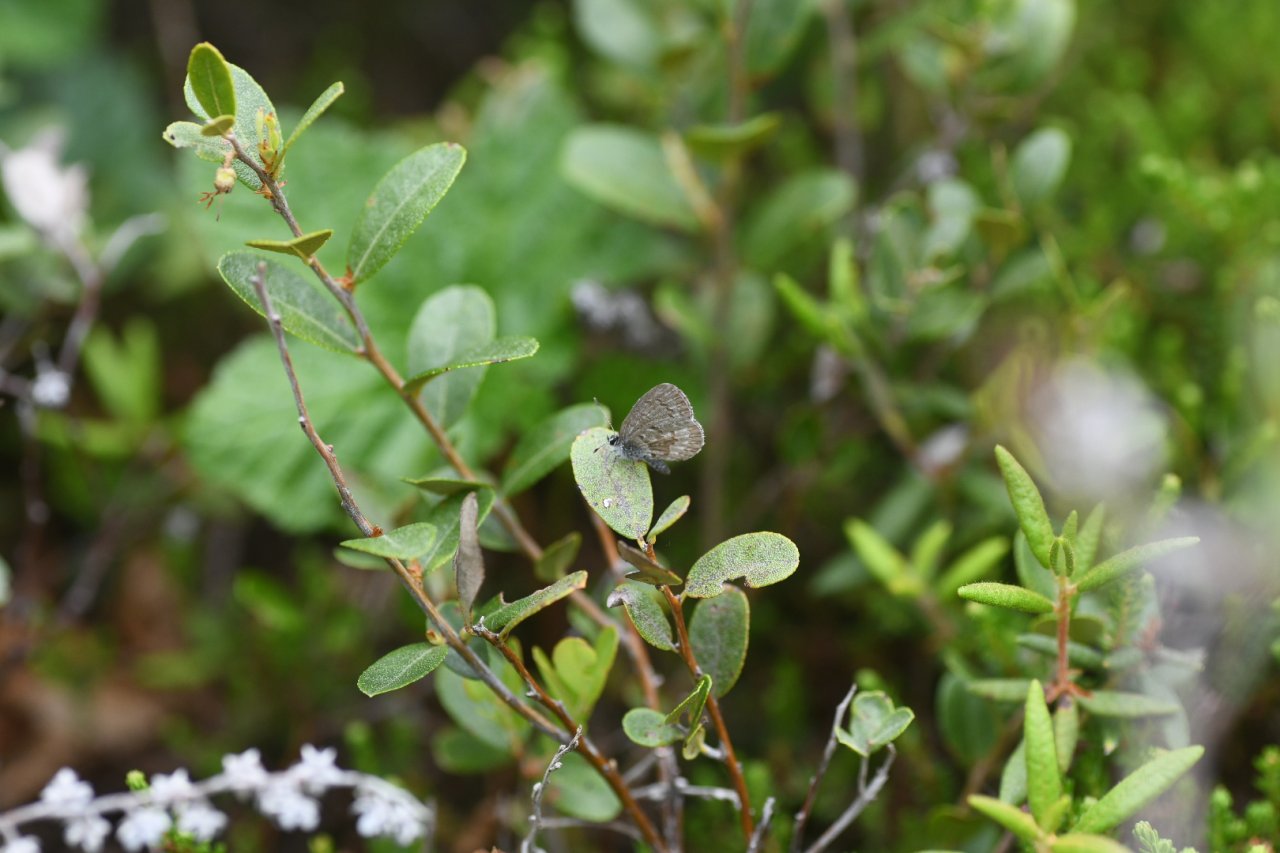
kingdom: Animalia
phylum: Arthropoda
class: Insecta
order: Lepidoptera
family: Lycaenidae
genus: Celastrina
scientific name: Celastrina lucia
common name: Northern Spring Azure
